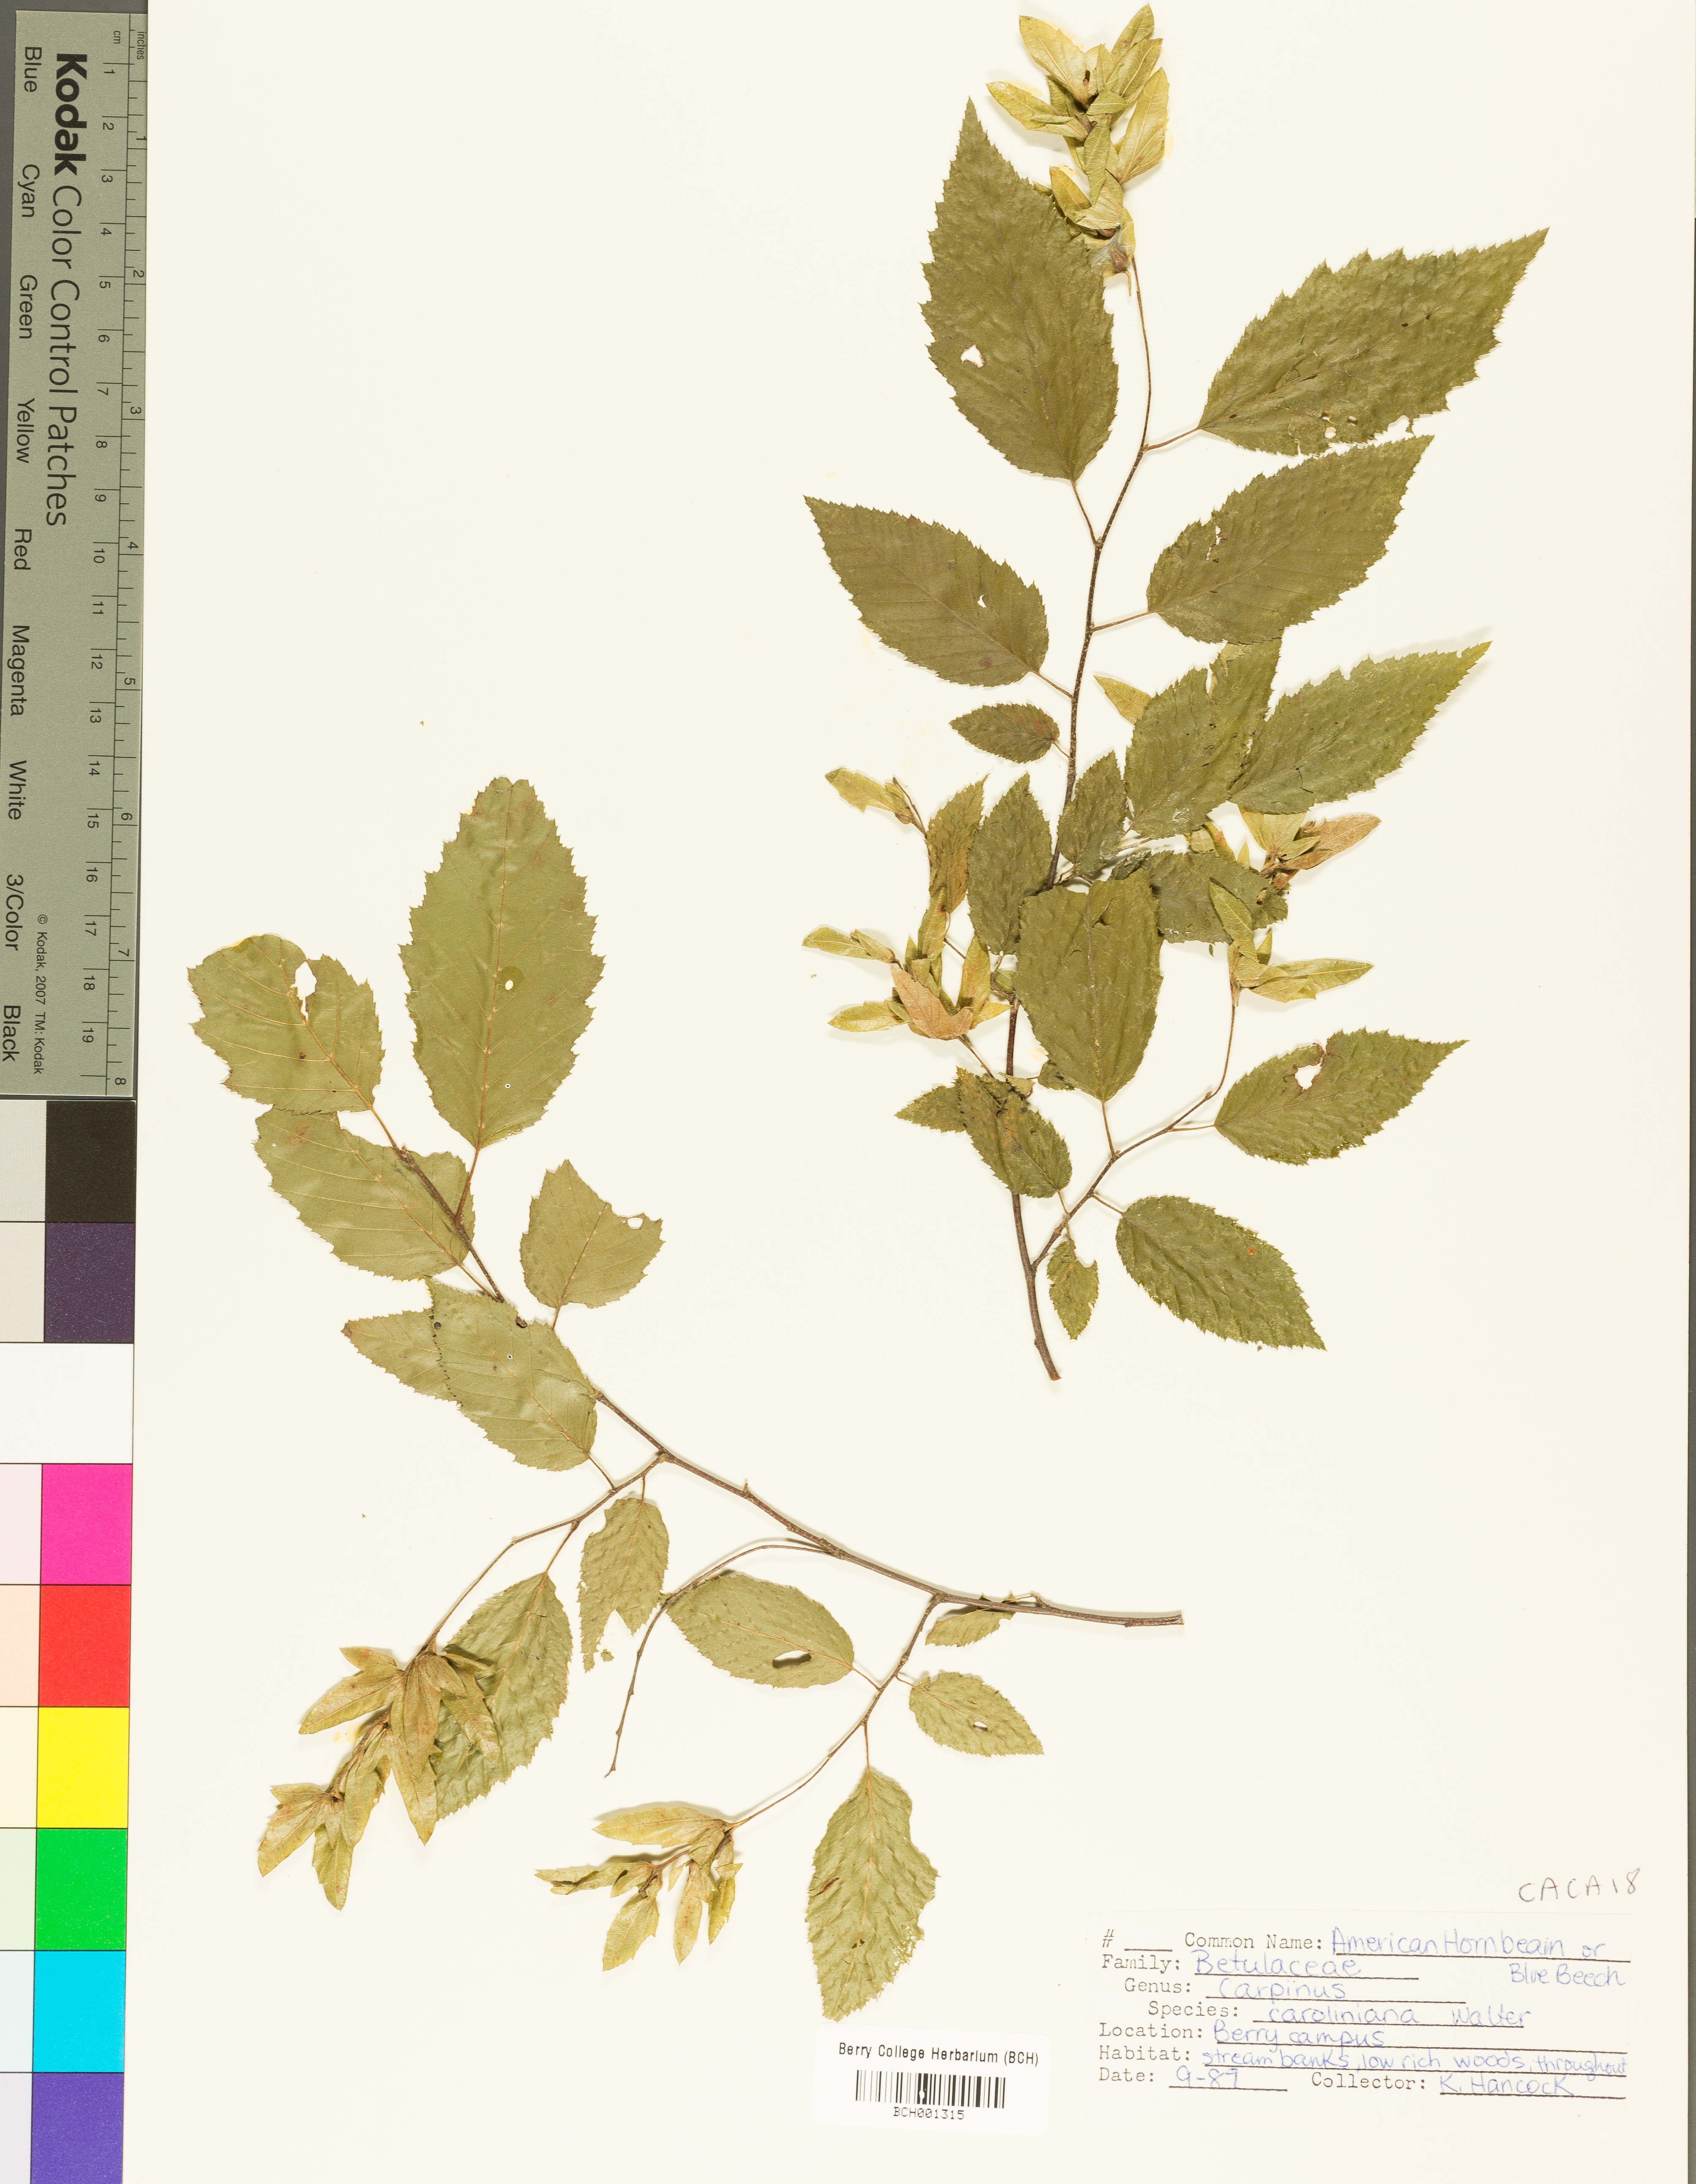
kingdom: Plantae
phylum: Tracheophyta
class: Magnoliopsida
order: Fagales
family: Betulaceae
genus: Carpinus
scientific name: Carpinus caroliniana
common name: American hornbeam
